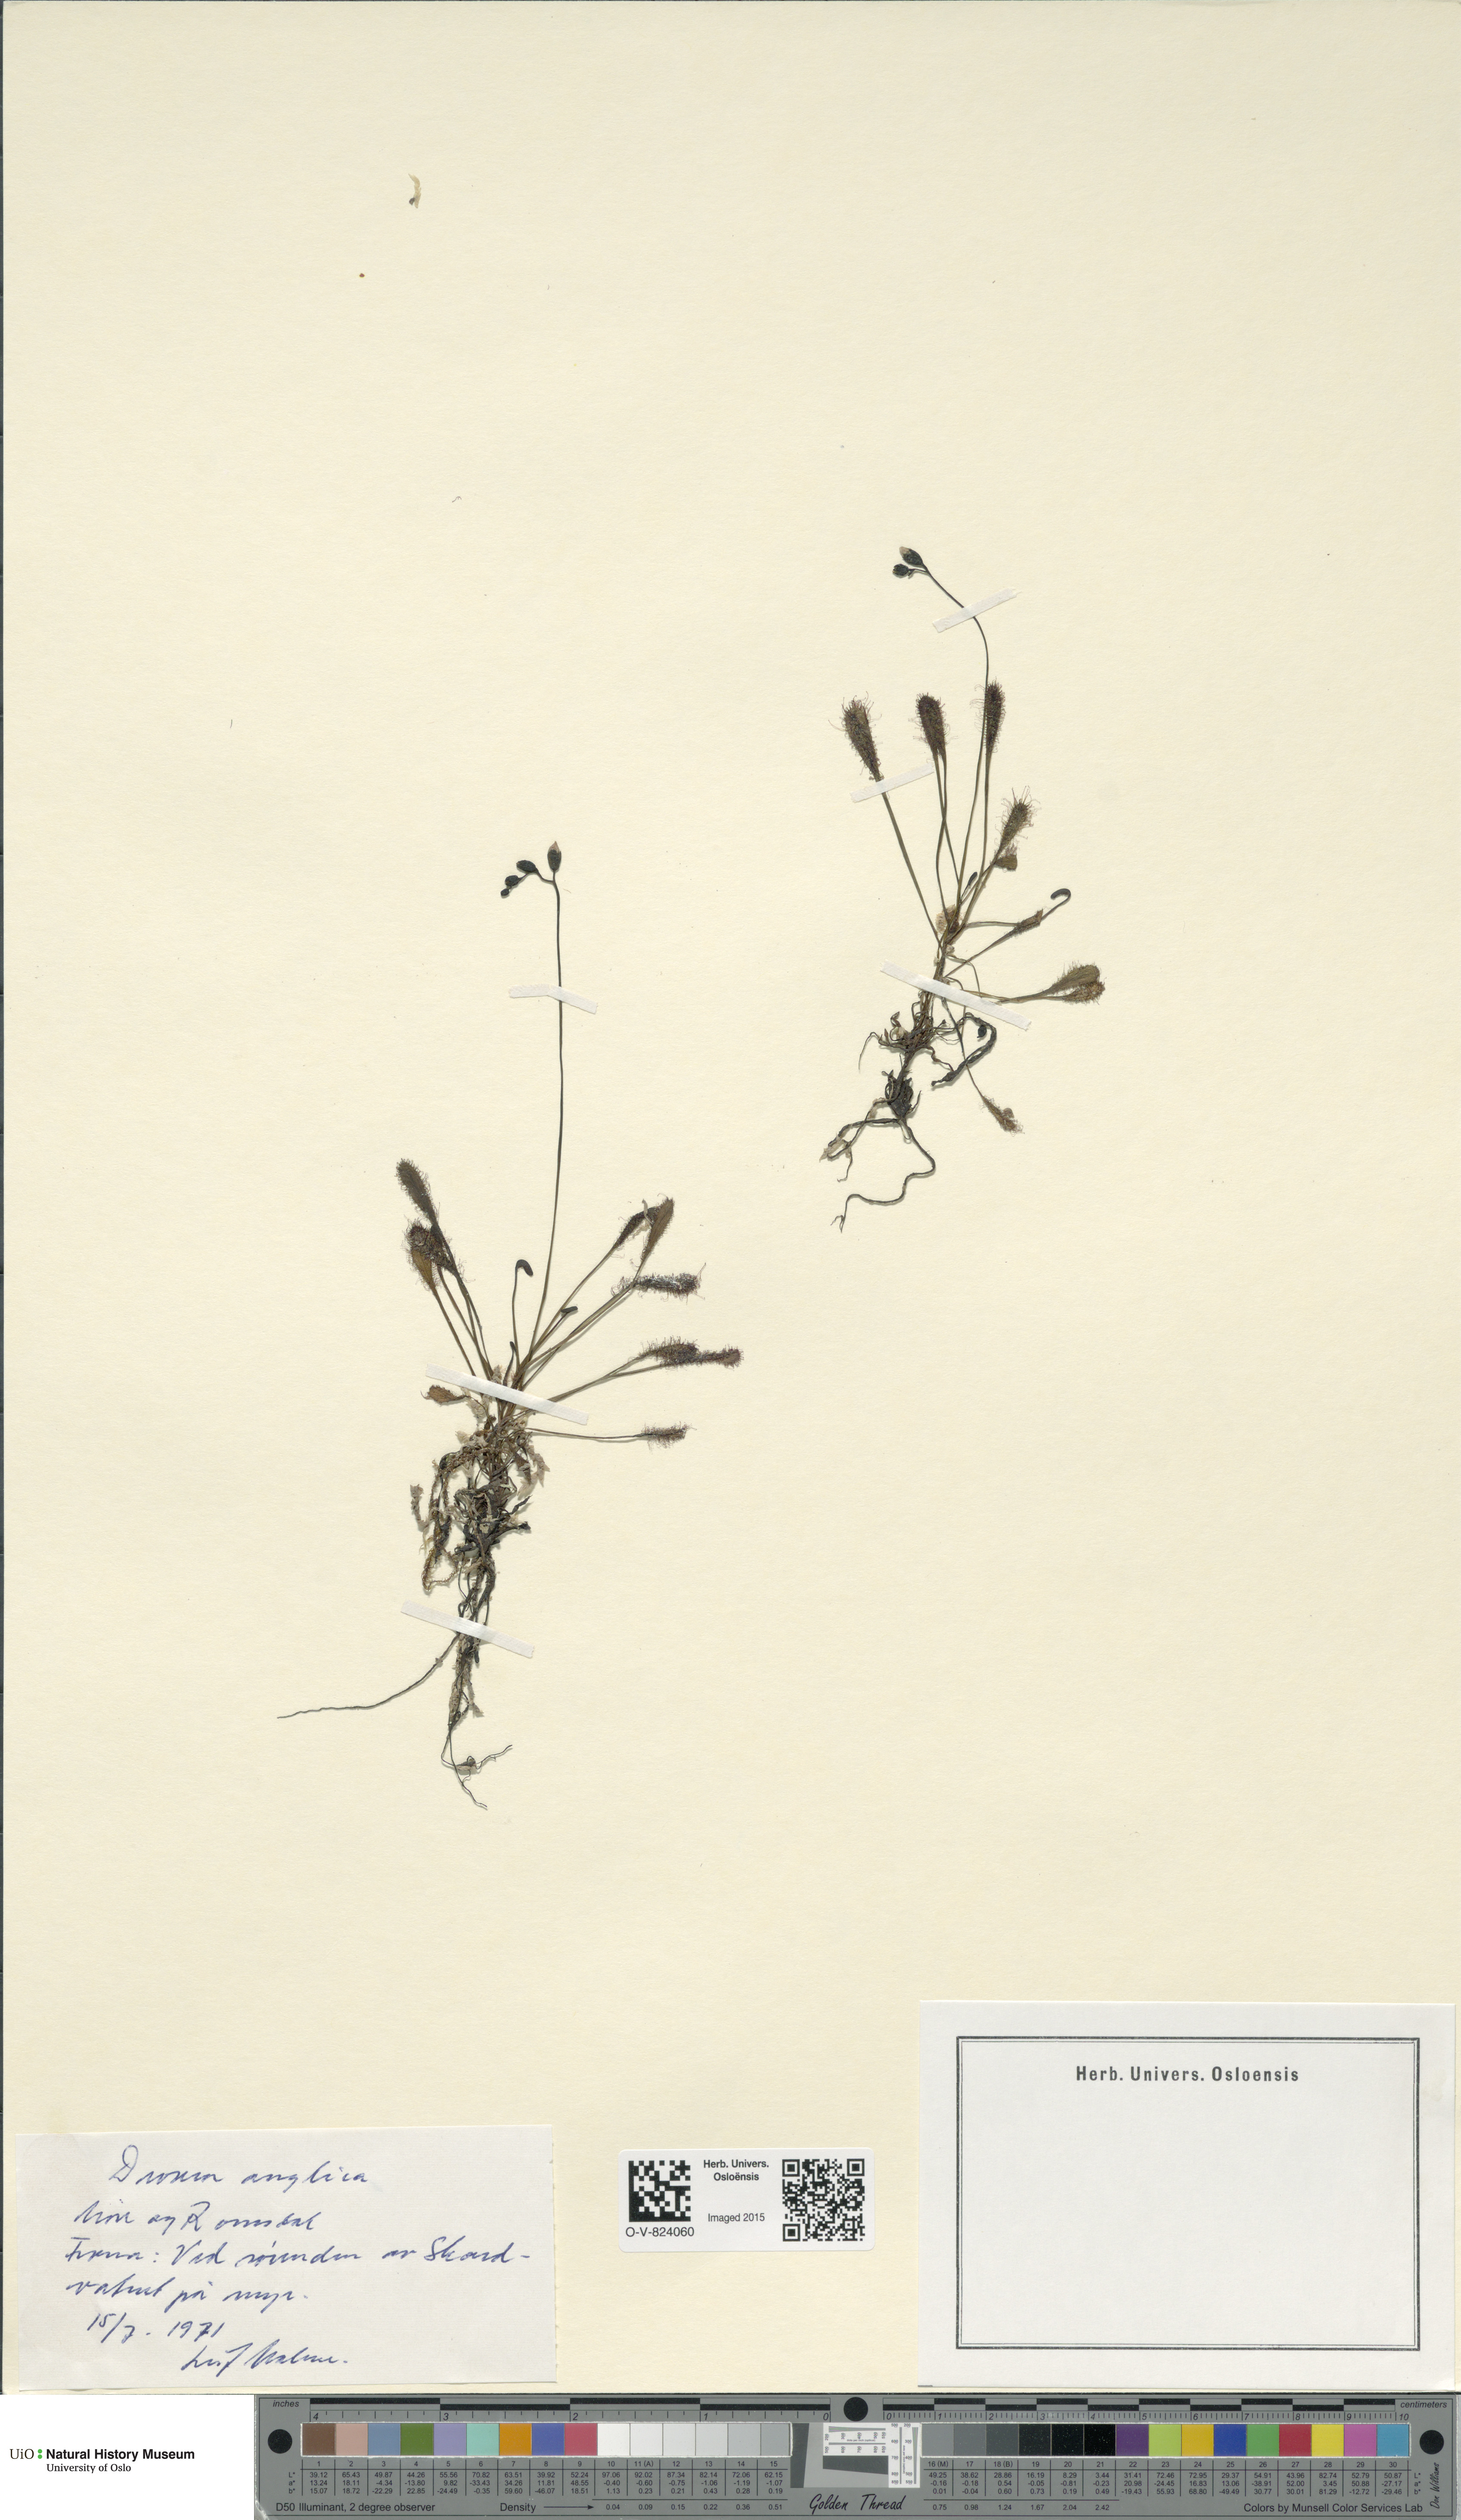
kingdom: Plantae
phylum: Tracheophyta
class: Magnoliopsida
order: Caryophyllales
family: Droseraceae
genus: Drosera
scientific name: Drosera anglica
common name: Great sundew
